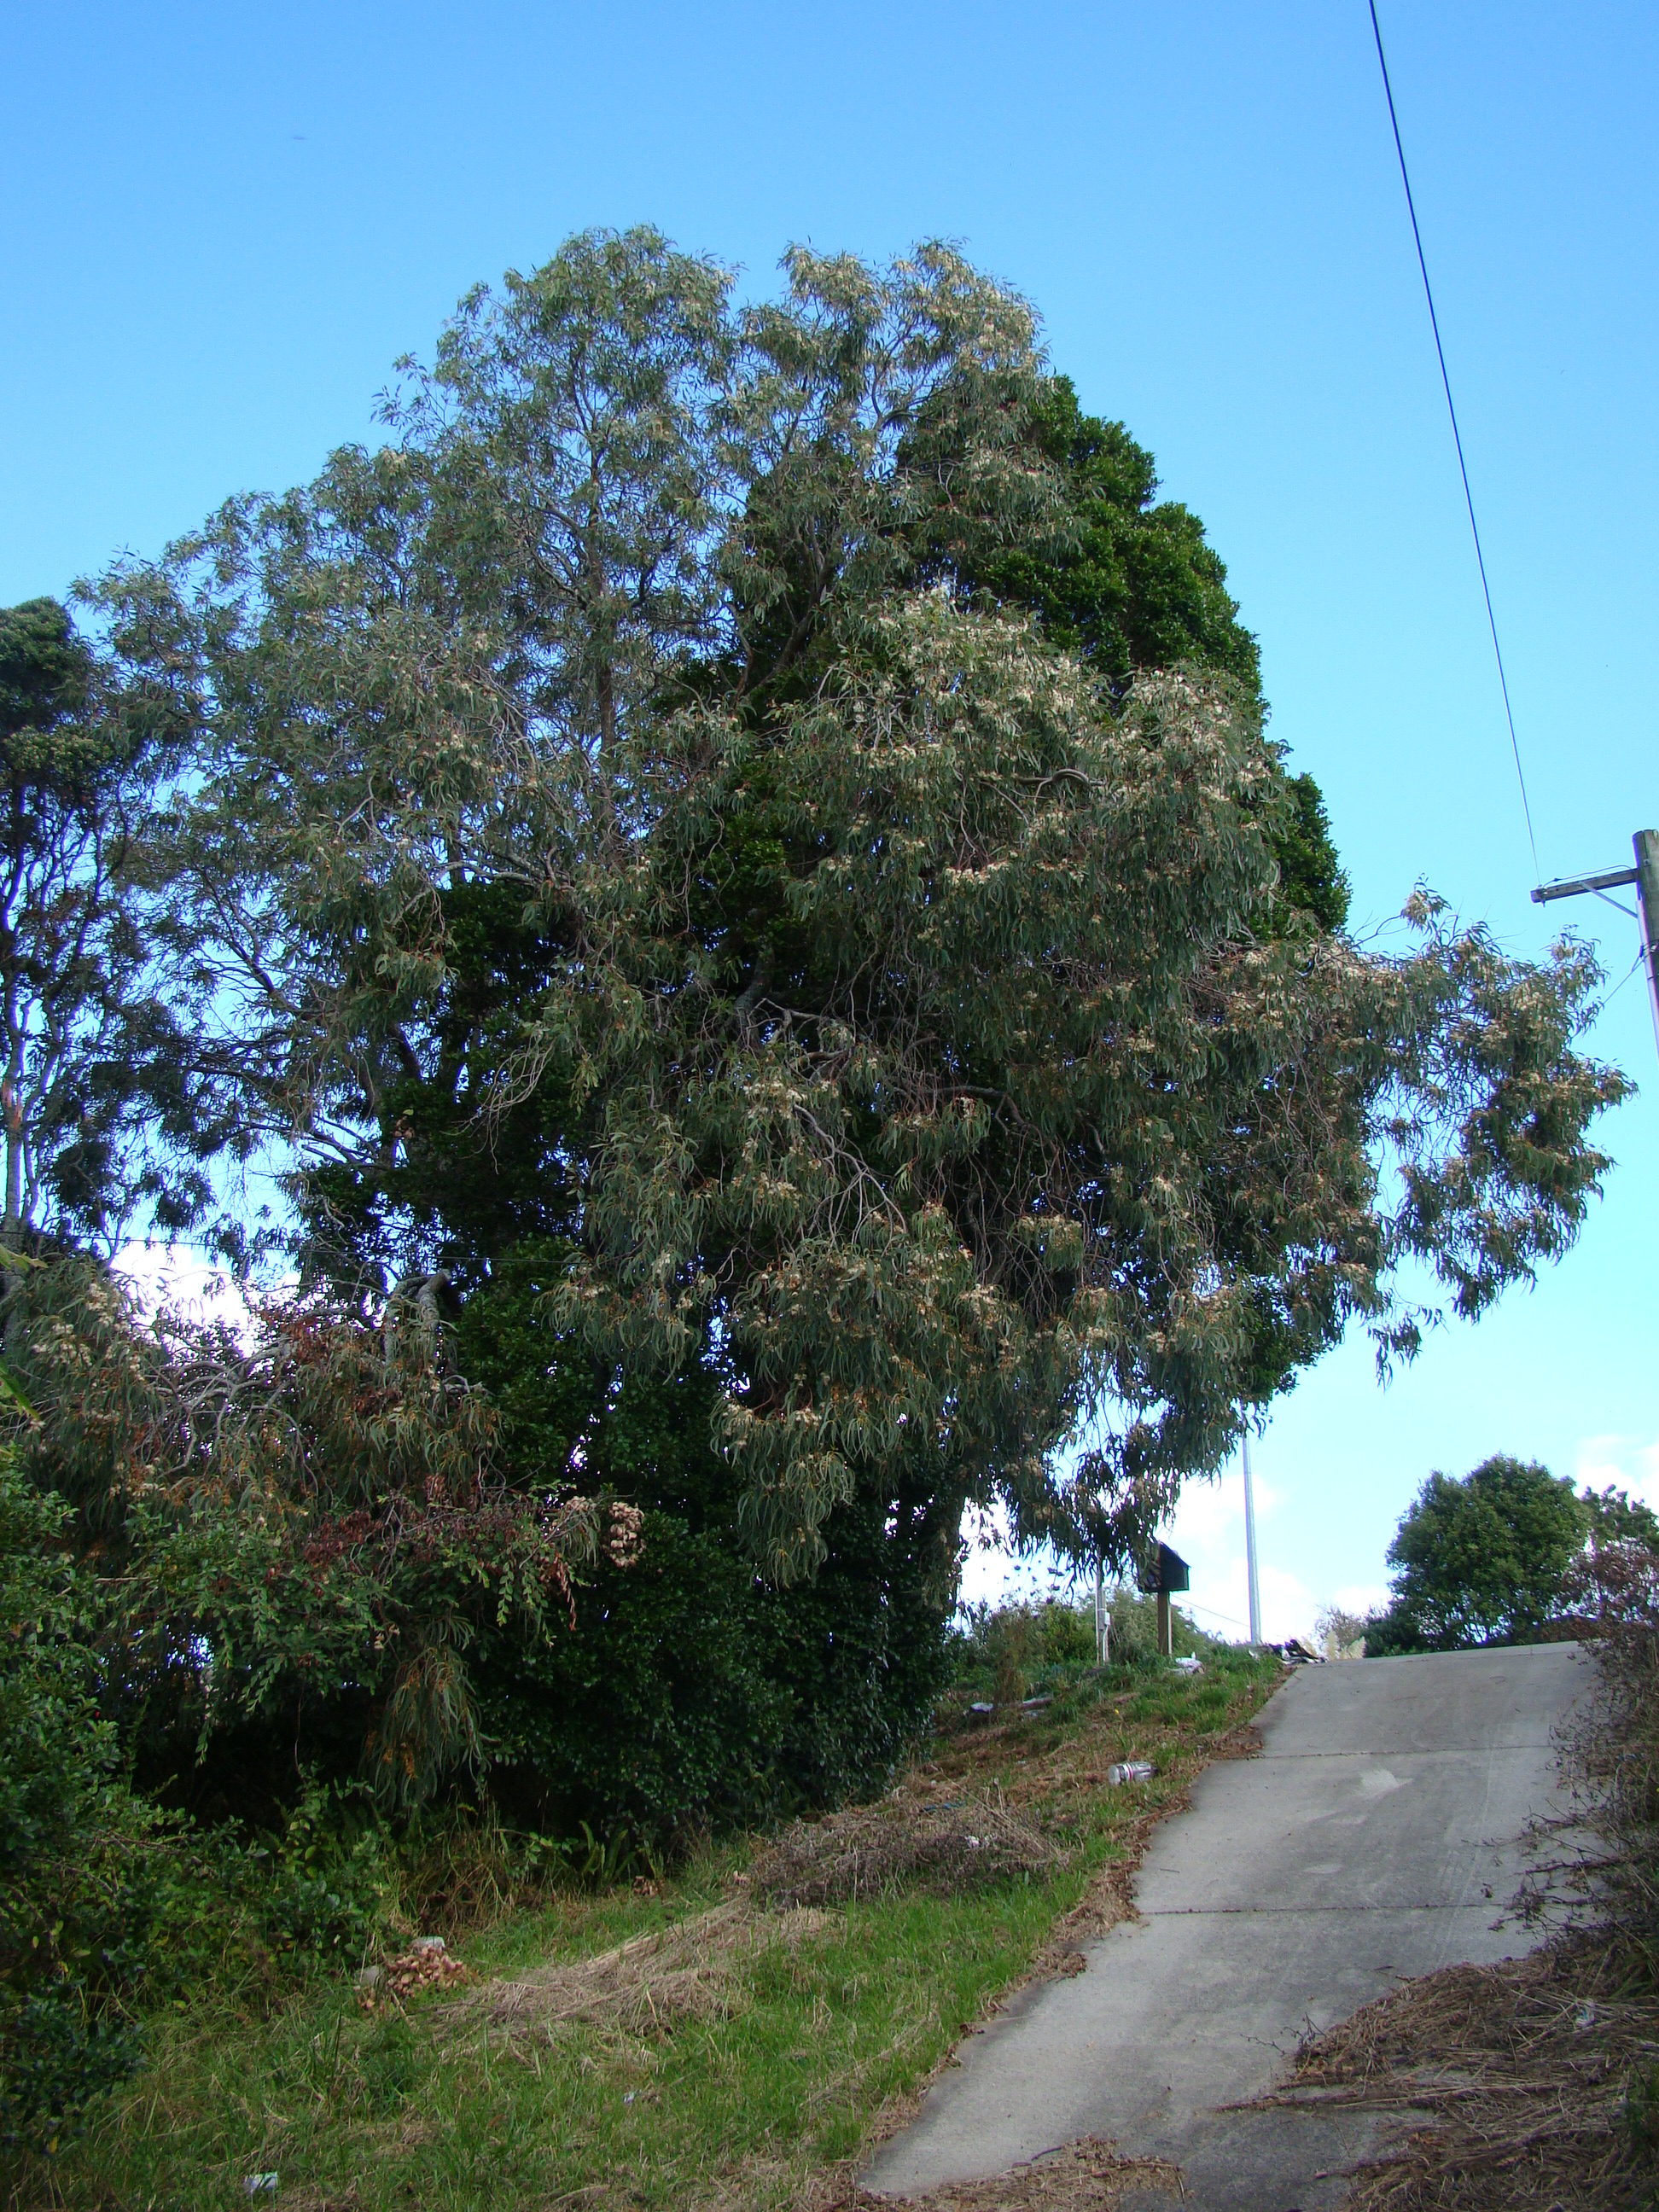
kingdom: Plantae
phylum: Tracheophyta
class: Magnoliopsida
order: Myrtales
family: Myrtaceae
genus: Eucalyptus
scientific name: Eucalyptus tricarpa
